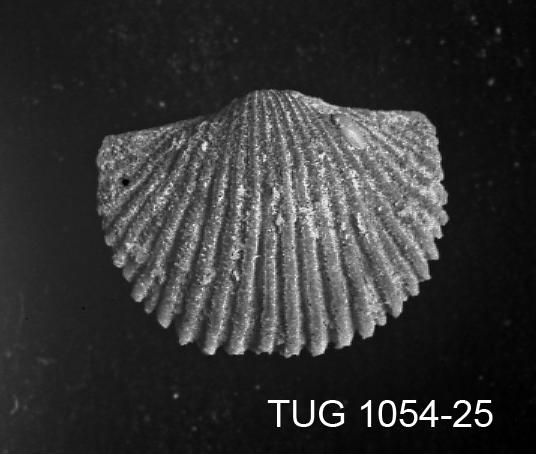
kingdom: Animalia
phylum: Brachiopoda
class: Rhynchonellata
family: Dalmanellidae
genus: Orthis
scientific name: Orthis
